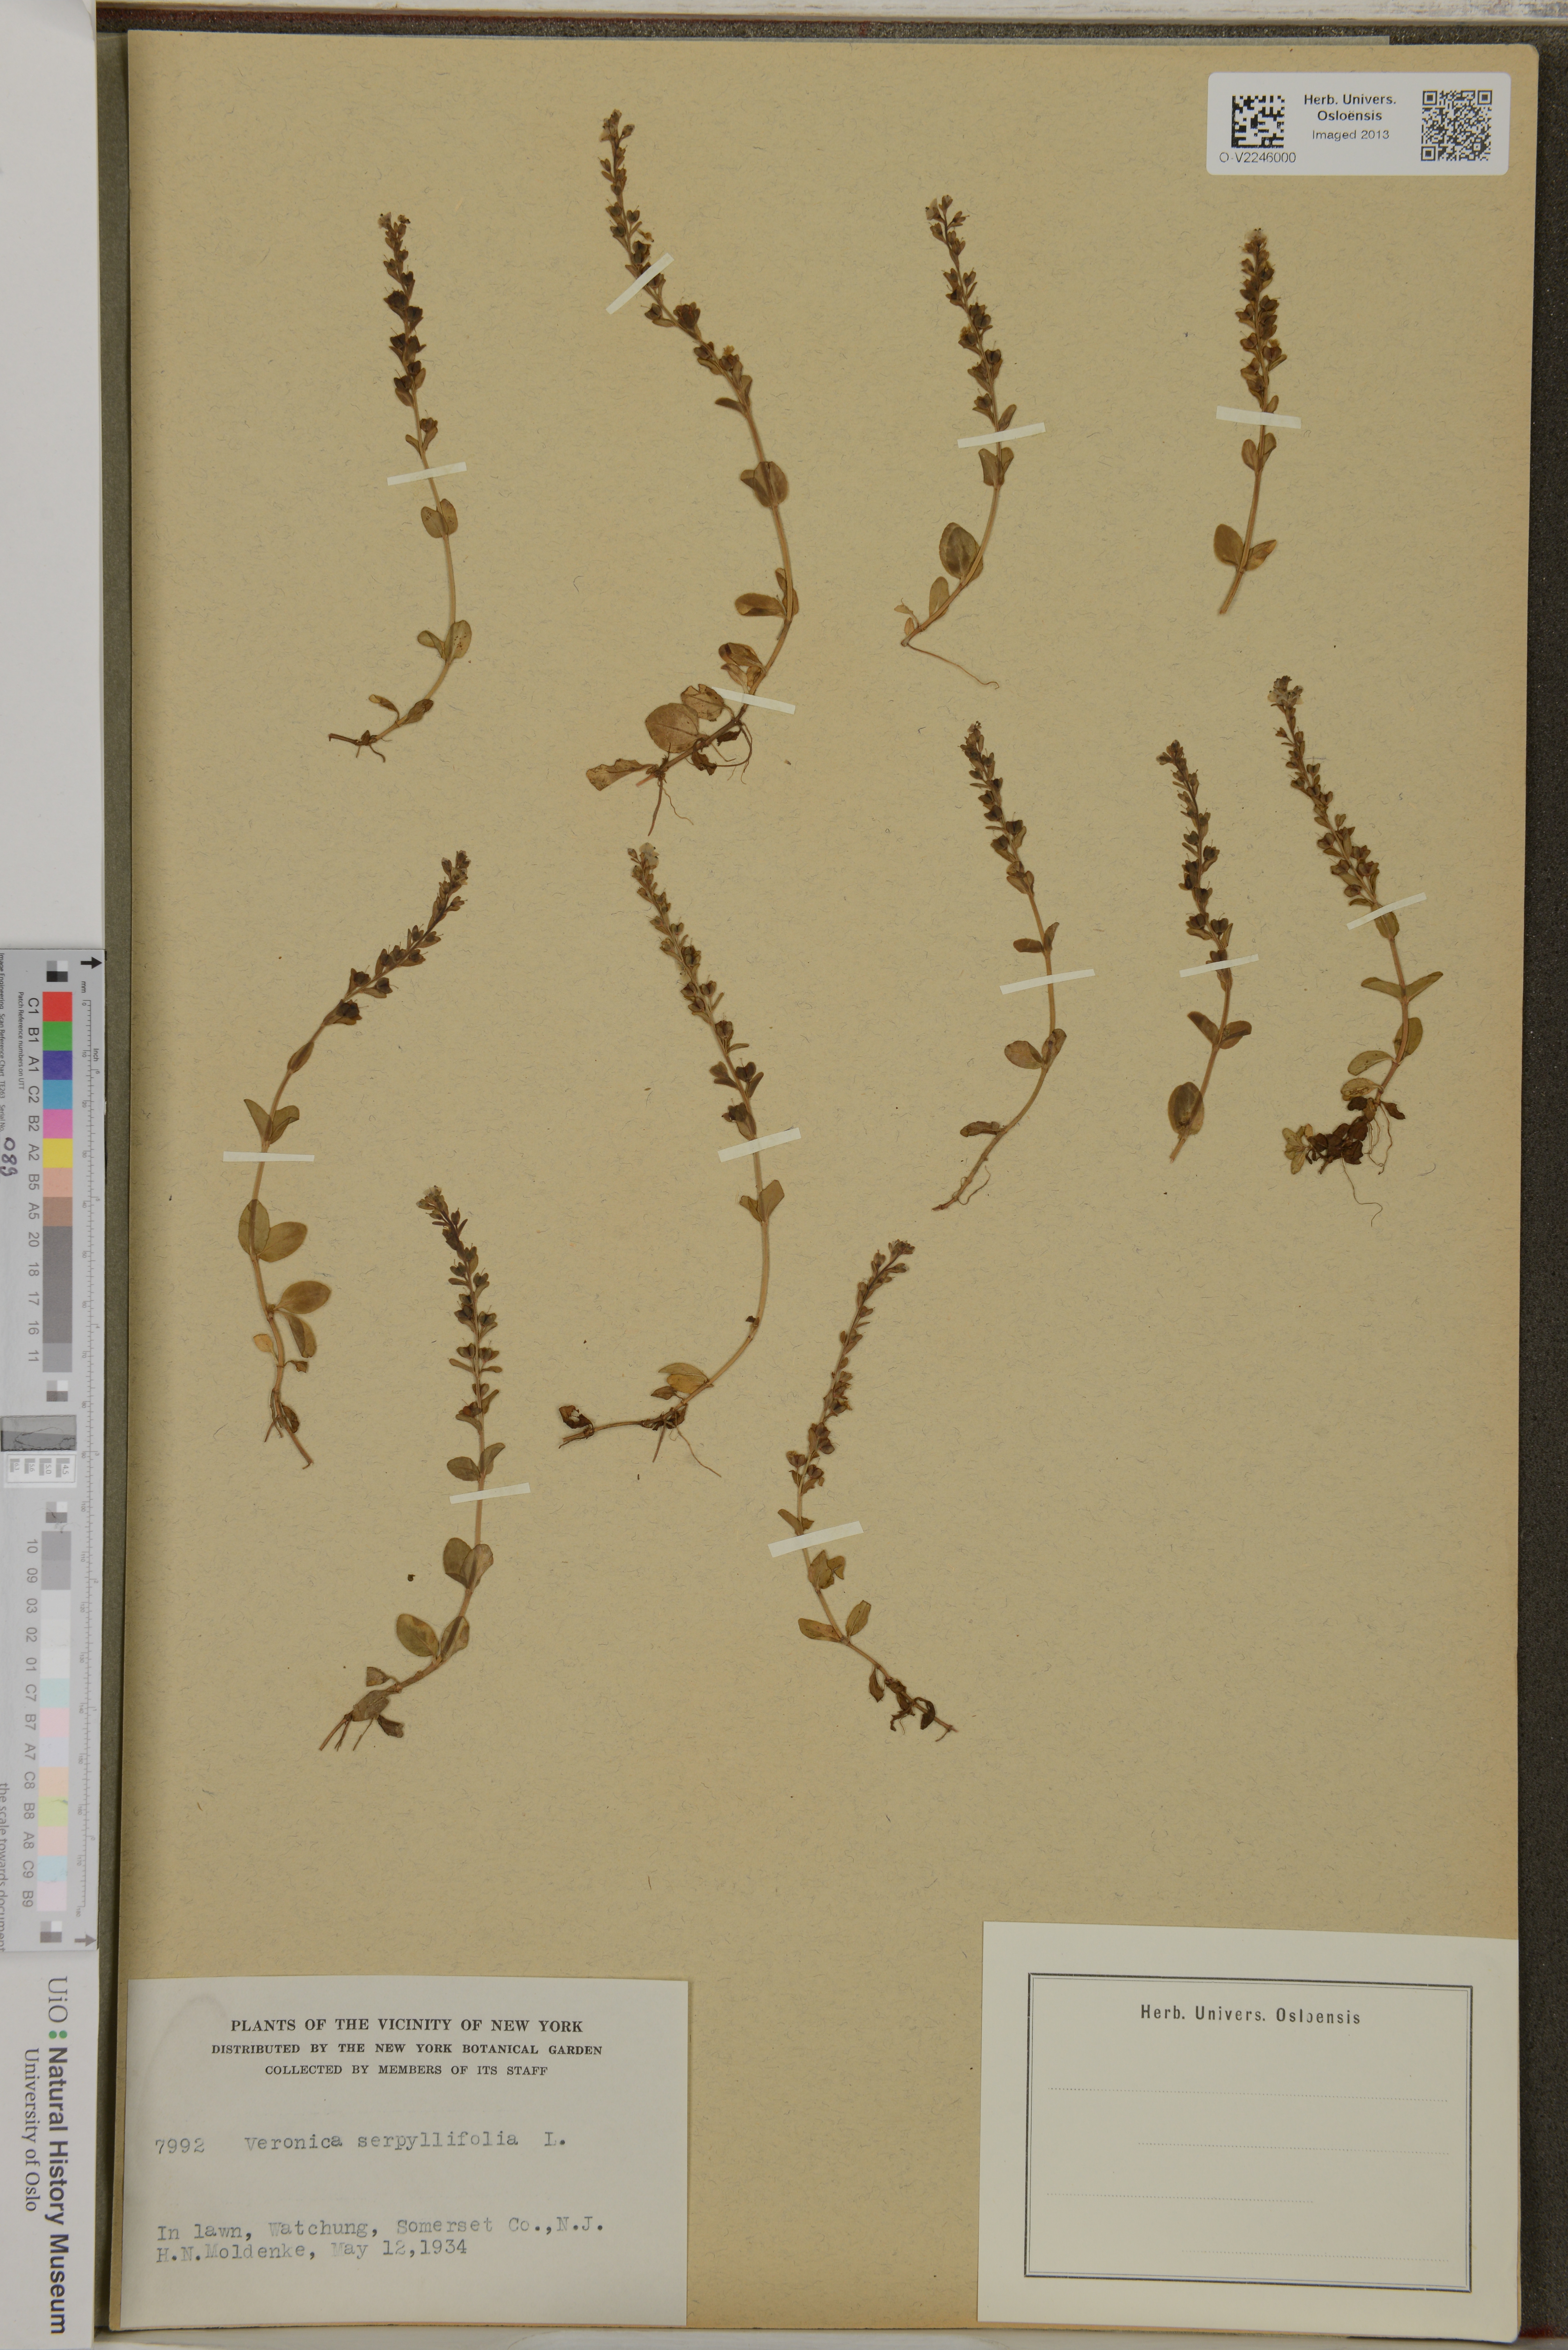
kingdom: Plantae
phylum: Tracheophyta
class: Magnoliopsida
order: Lamiales
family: Plantaginaceae
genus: Veronica
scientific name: Veronica serpyllifolia
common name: Thyme-leaved speedwell
